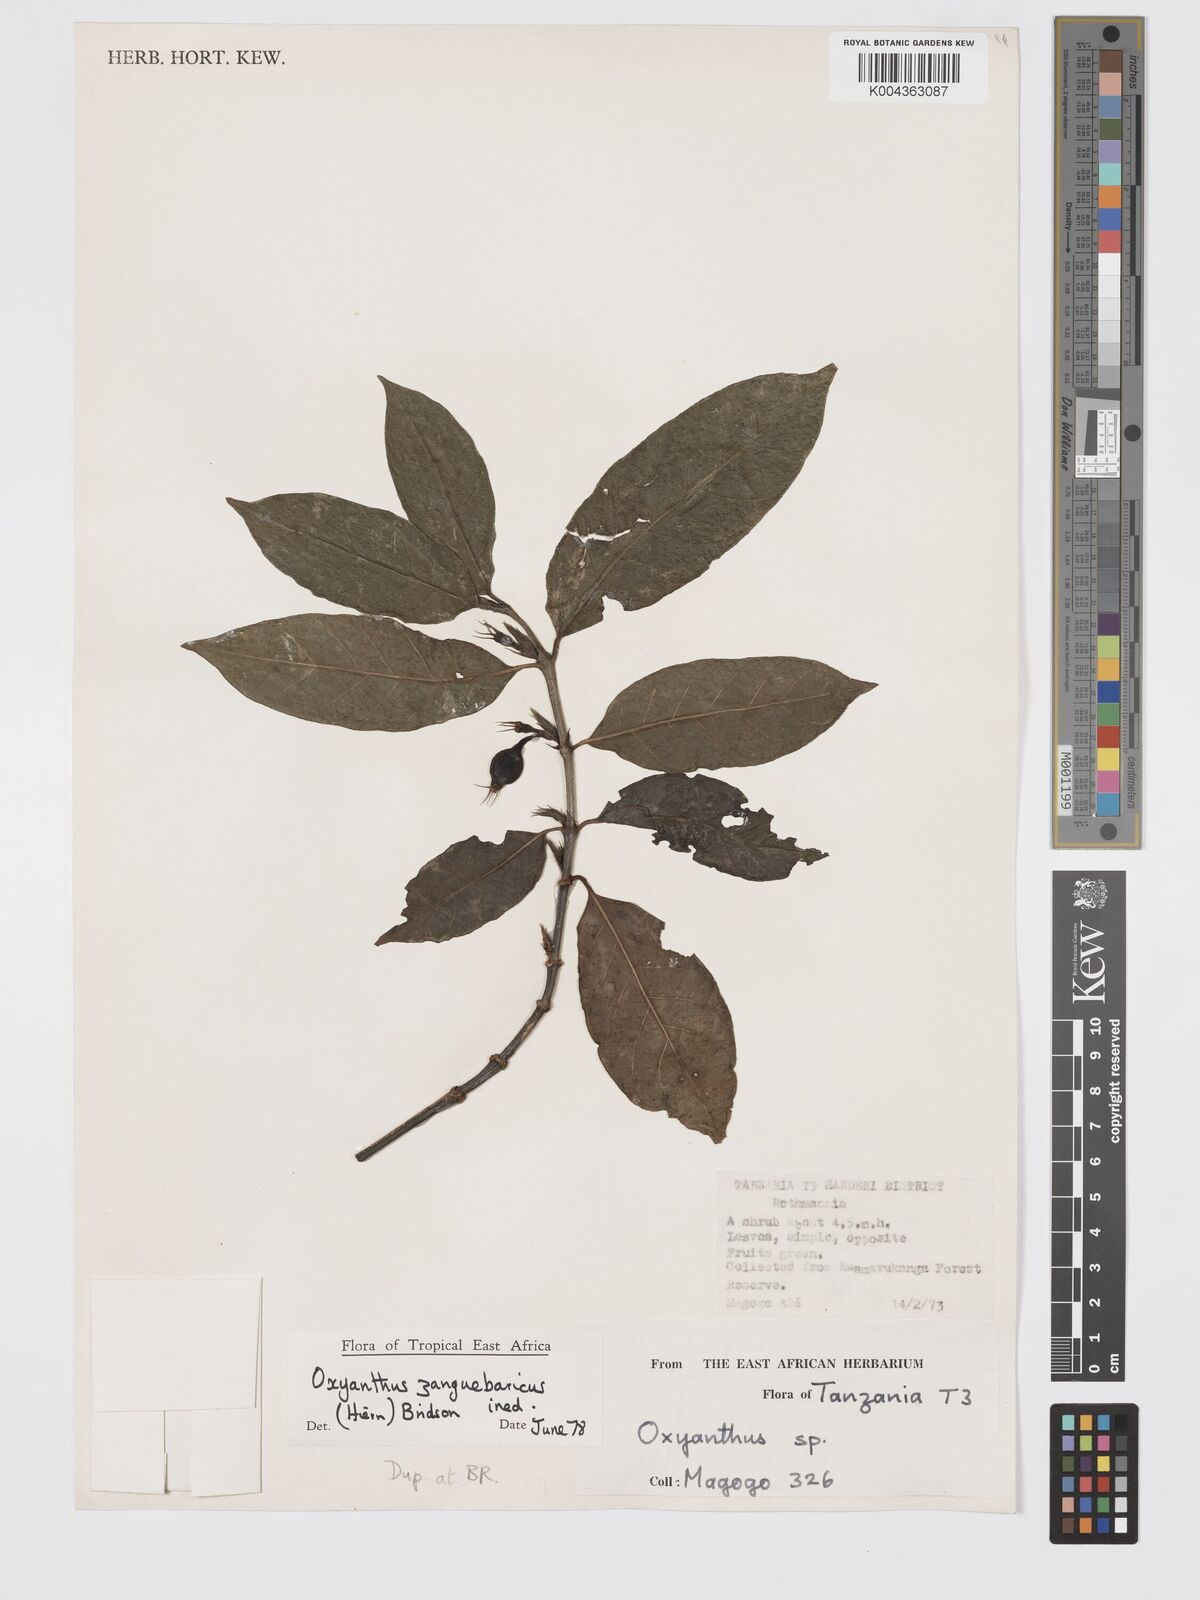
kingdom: Plantae
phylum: Tracheophyta
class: Magnoliopsida
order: Gentianales
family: Rubiaceae
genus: Oxyanthus
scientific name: Oxyanthus zanguebaricus
